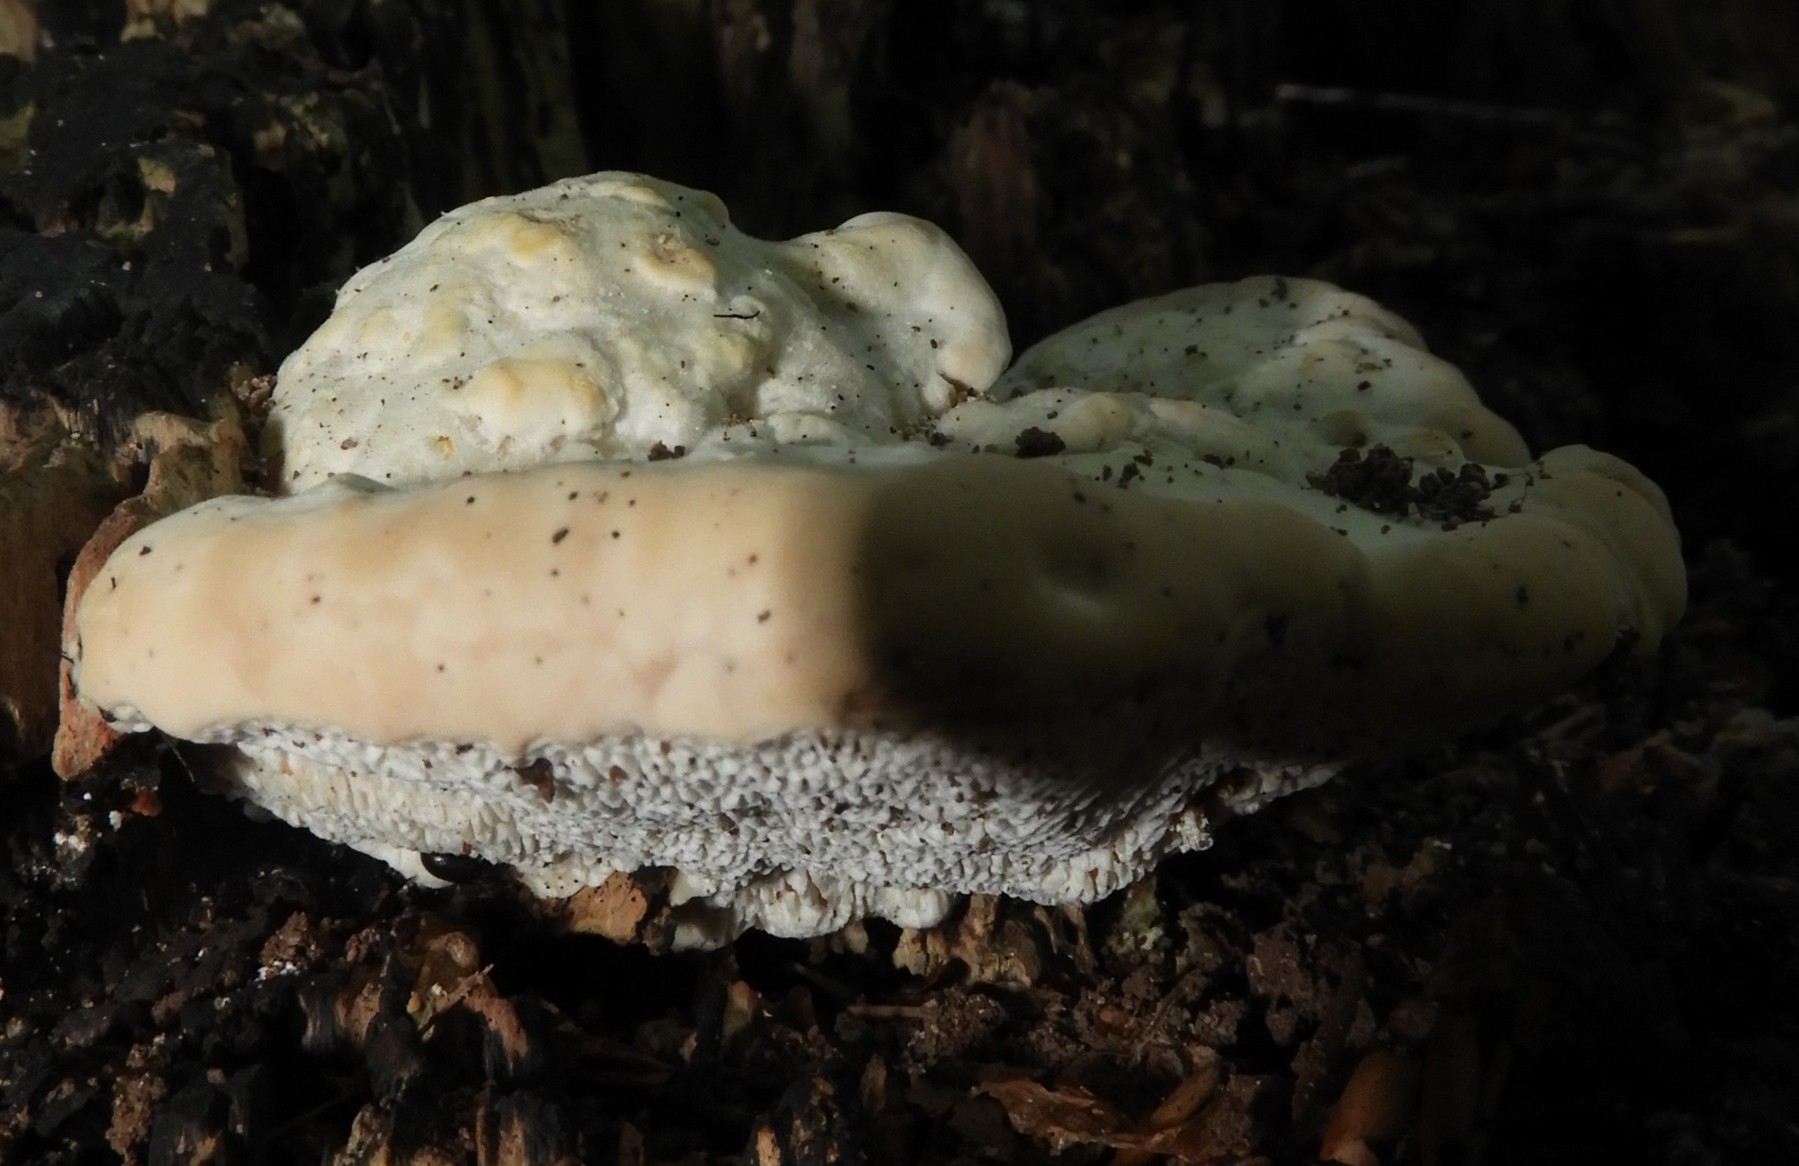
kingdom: Fungi
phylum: Basidiomycota
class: Agaricomycetes
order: Polyporales
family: Polyporaceae
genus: Trametes
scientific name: Trametes gibbosa
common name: puklet læderporesvamp
